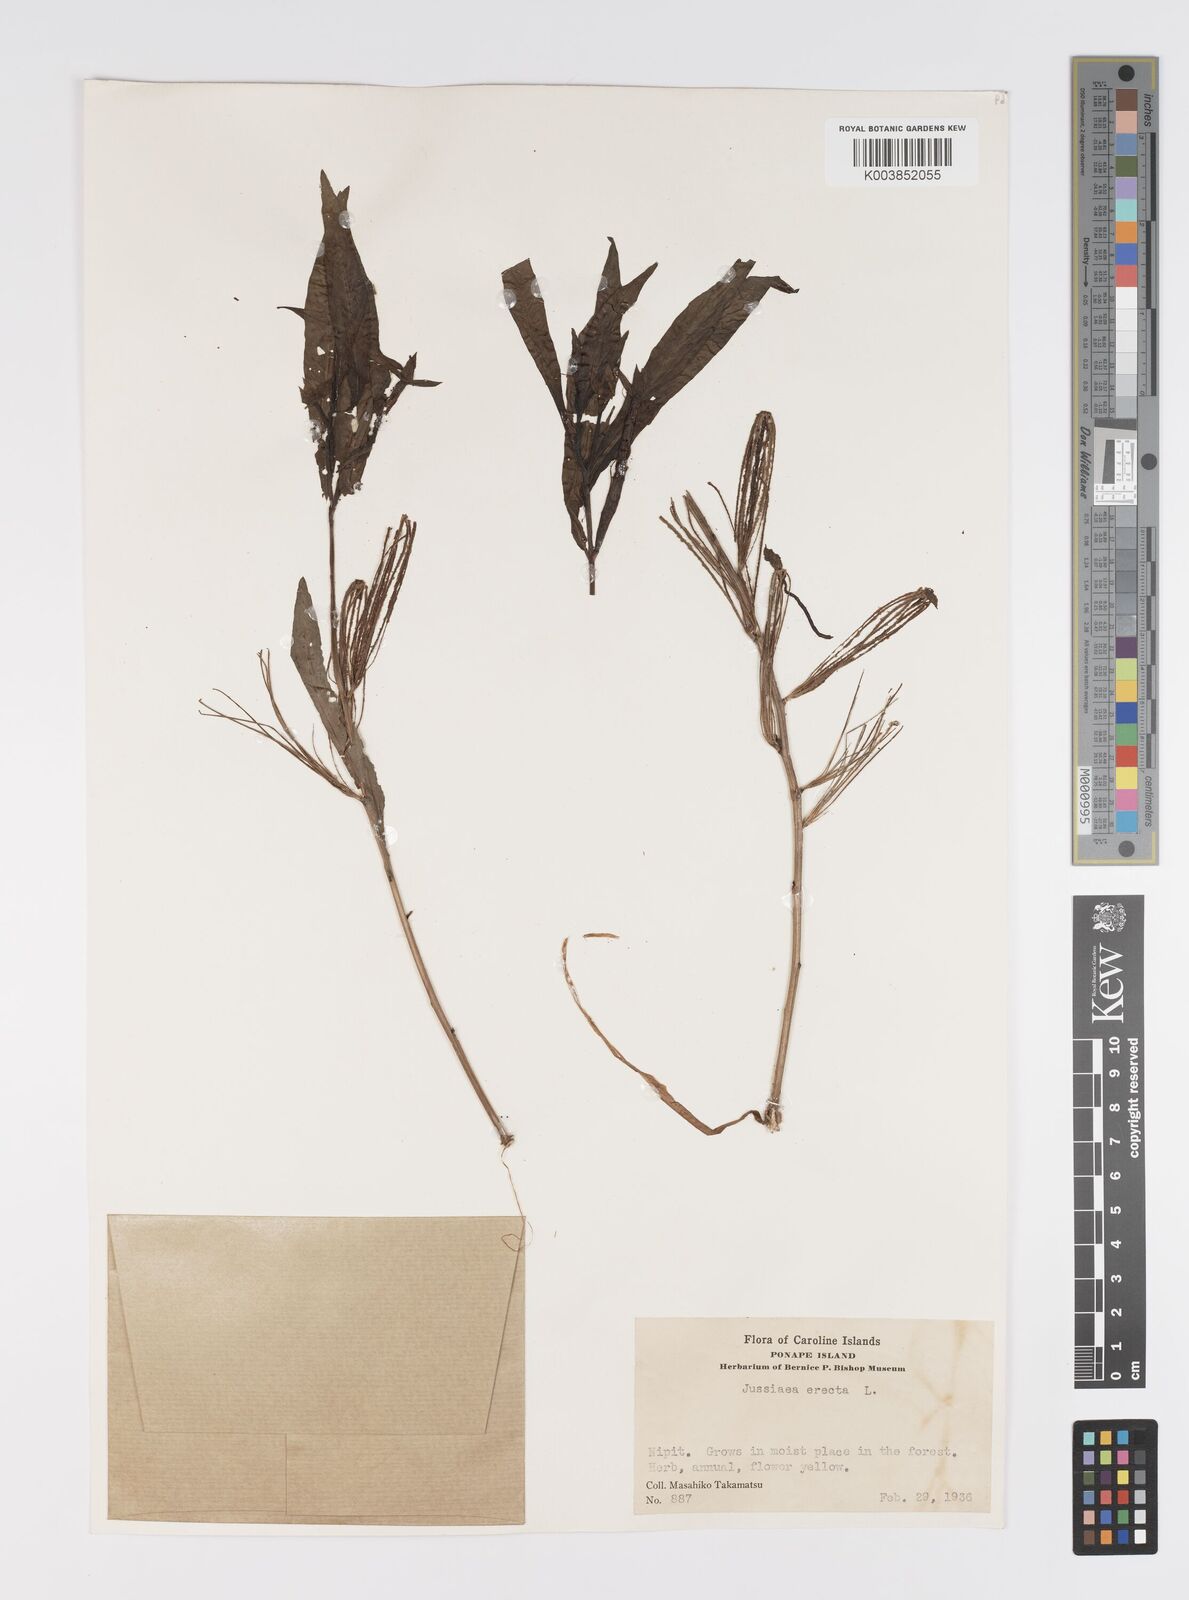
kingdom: Plantae
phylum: Tracheophyta
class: Magnoliopsida
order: Myrtales
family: Onagraceae
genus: Ludwigia
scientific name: Ludwigia octovalvis
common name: Water-primrose
